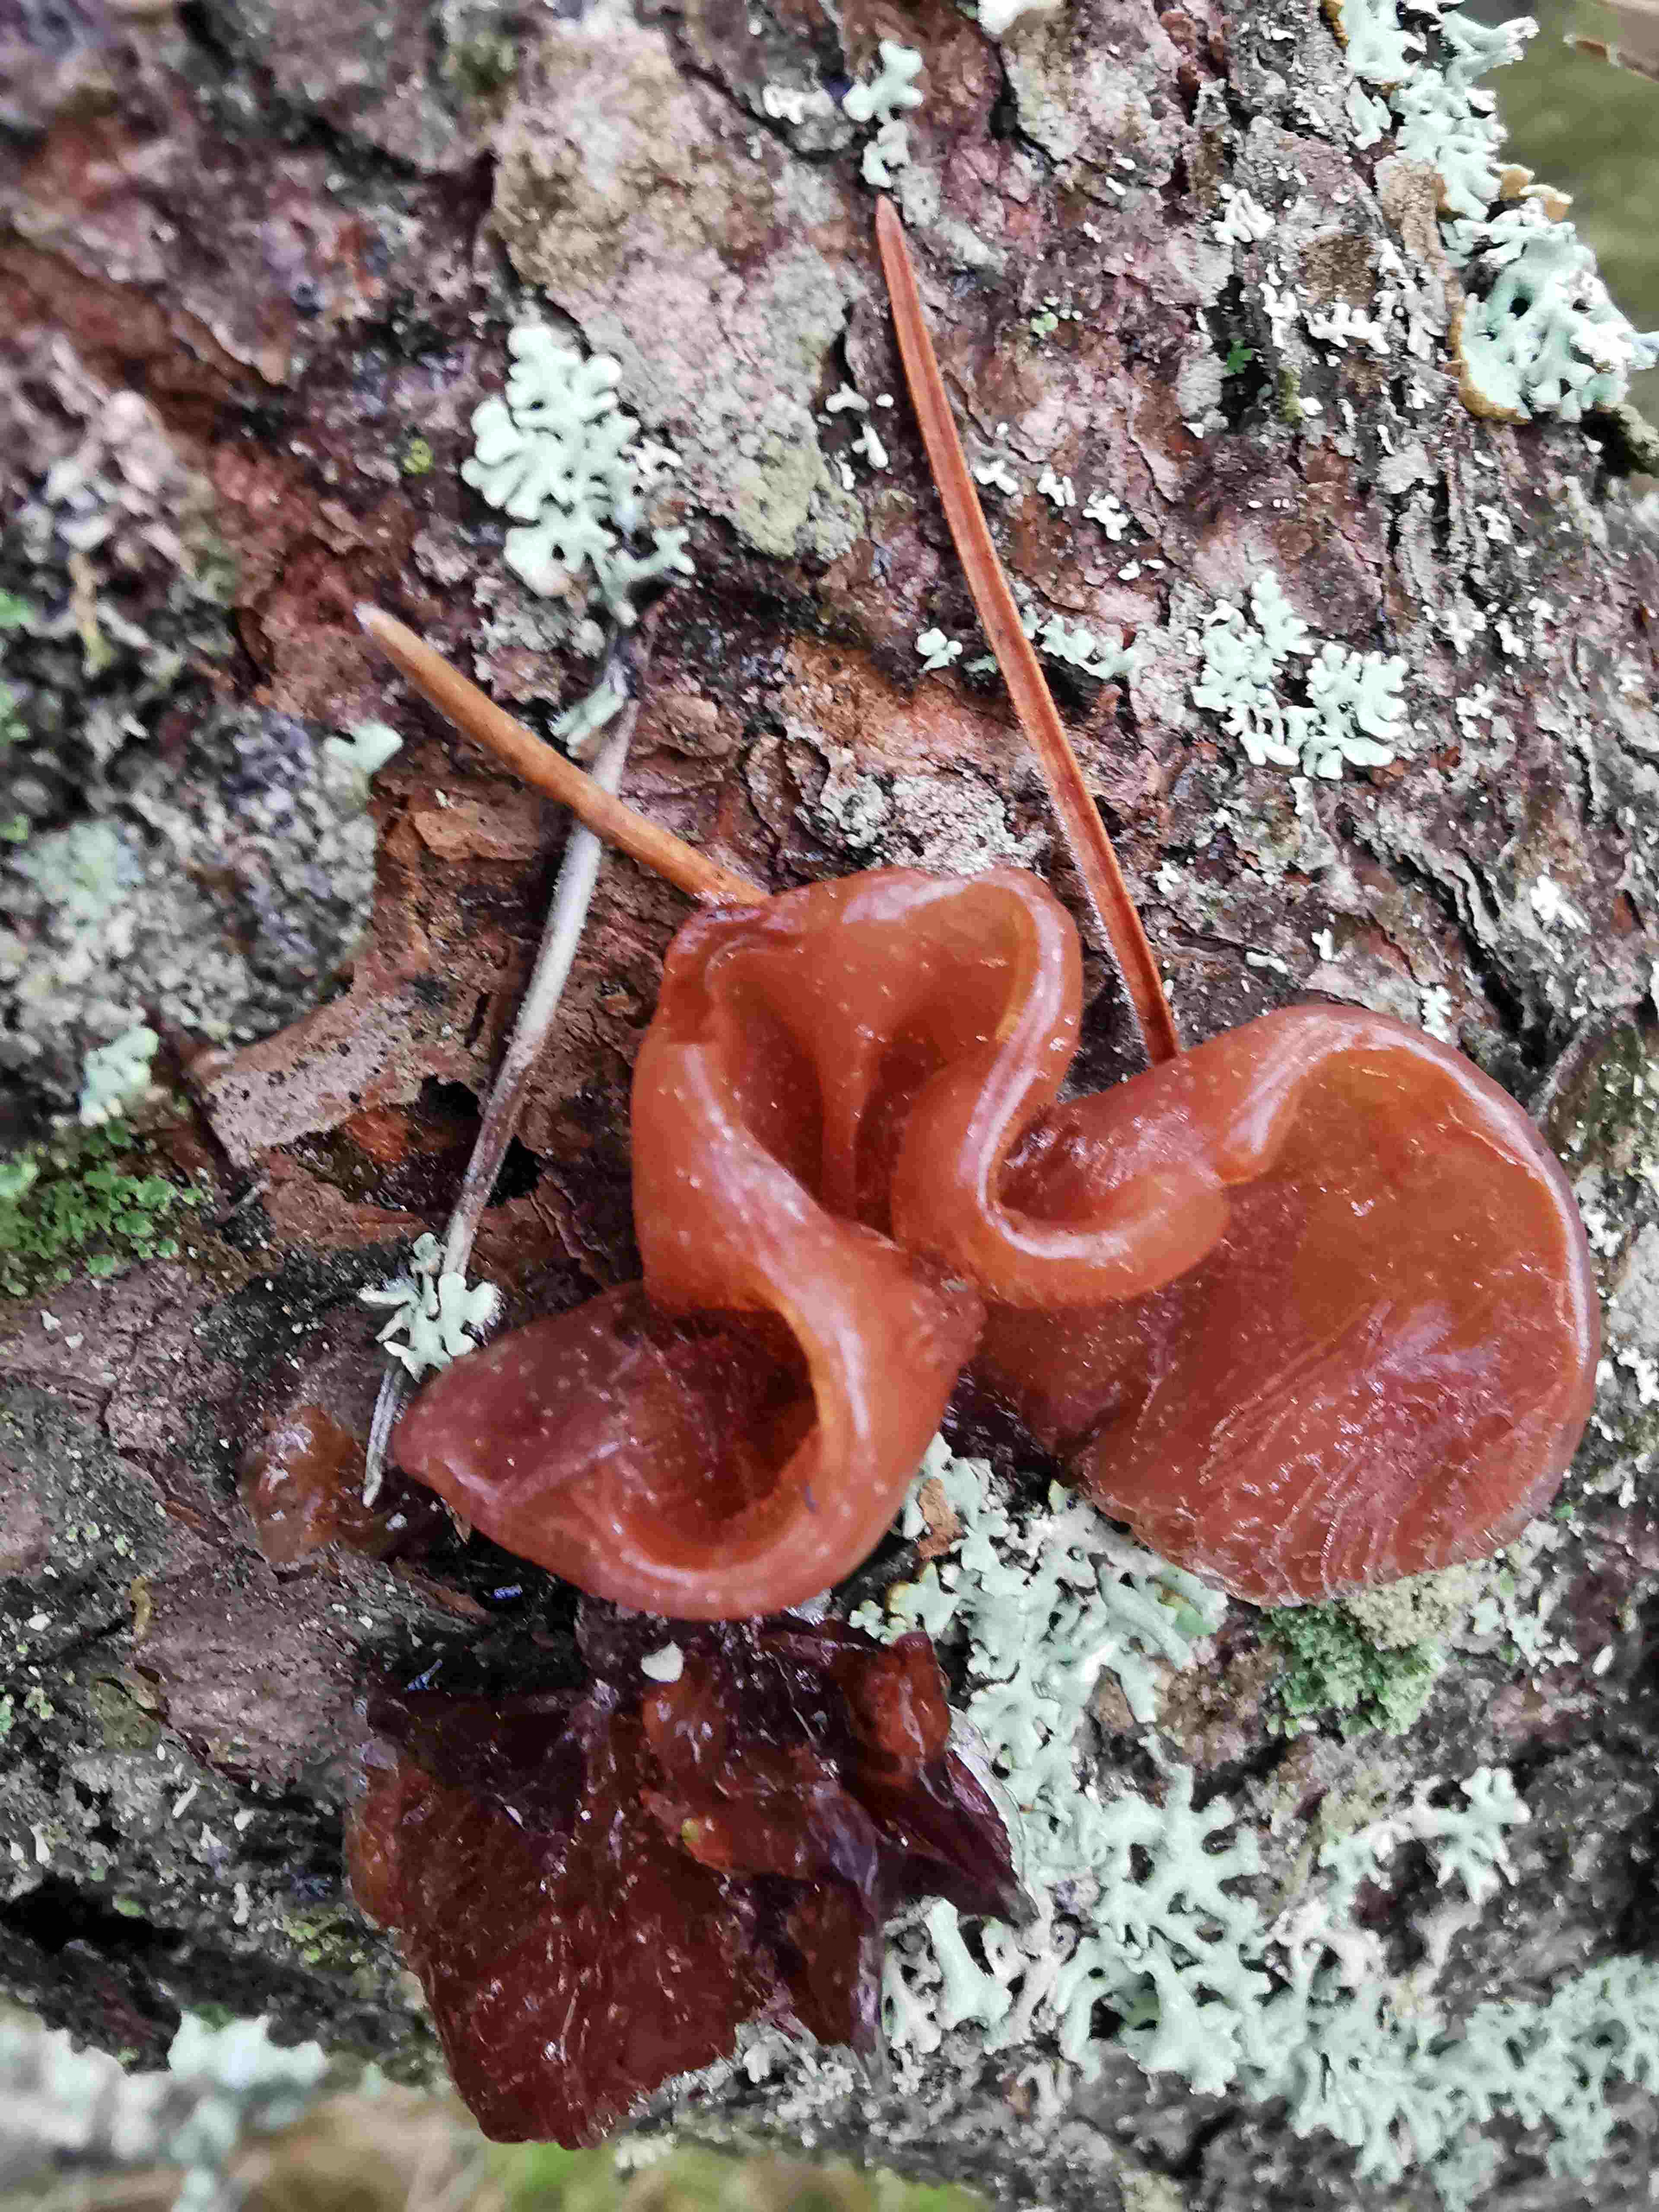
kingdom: Fungi
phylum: Basidiomycota
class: Tremellomycetes
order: Tremellales
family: Tremellaceae
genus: Phaeotremella
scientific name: Phaeotremella foliacea
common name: brun bævresvamp
